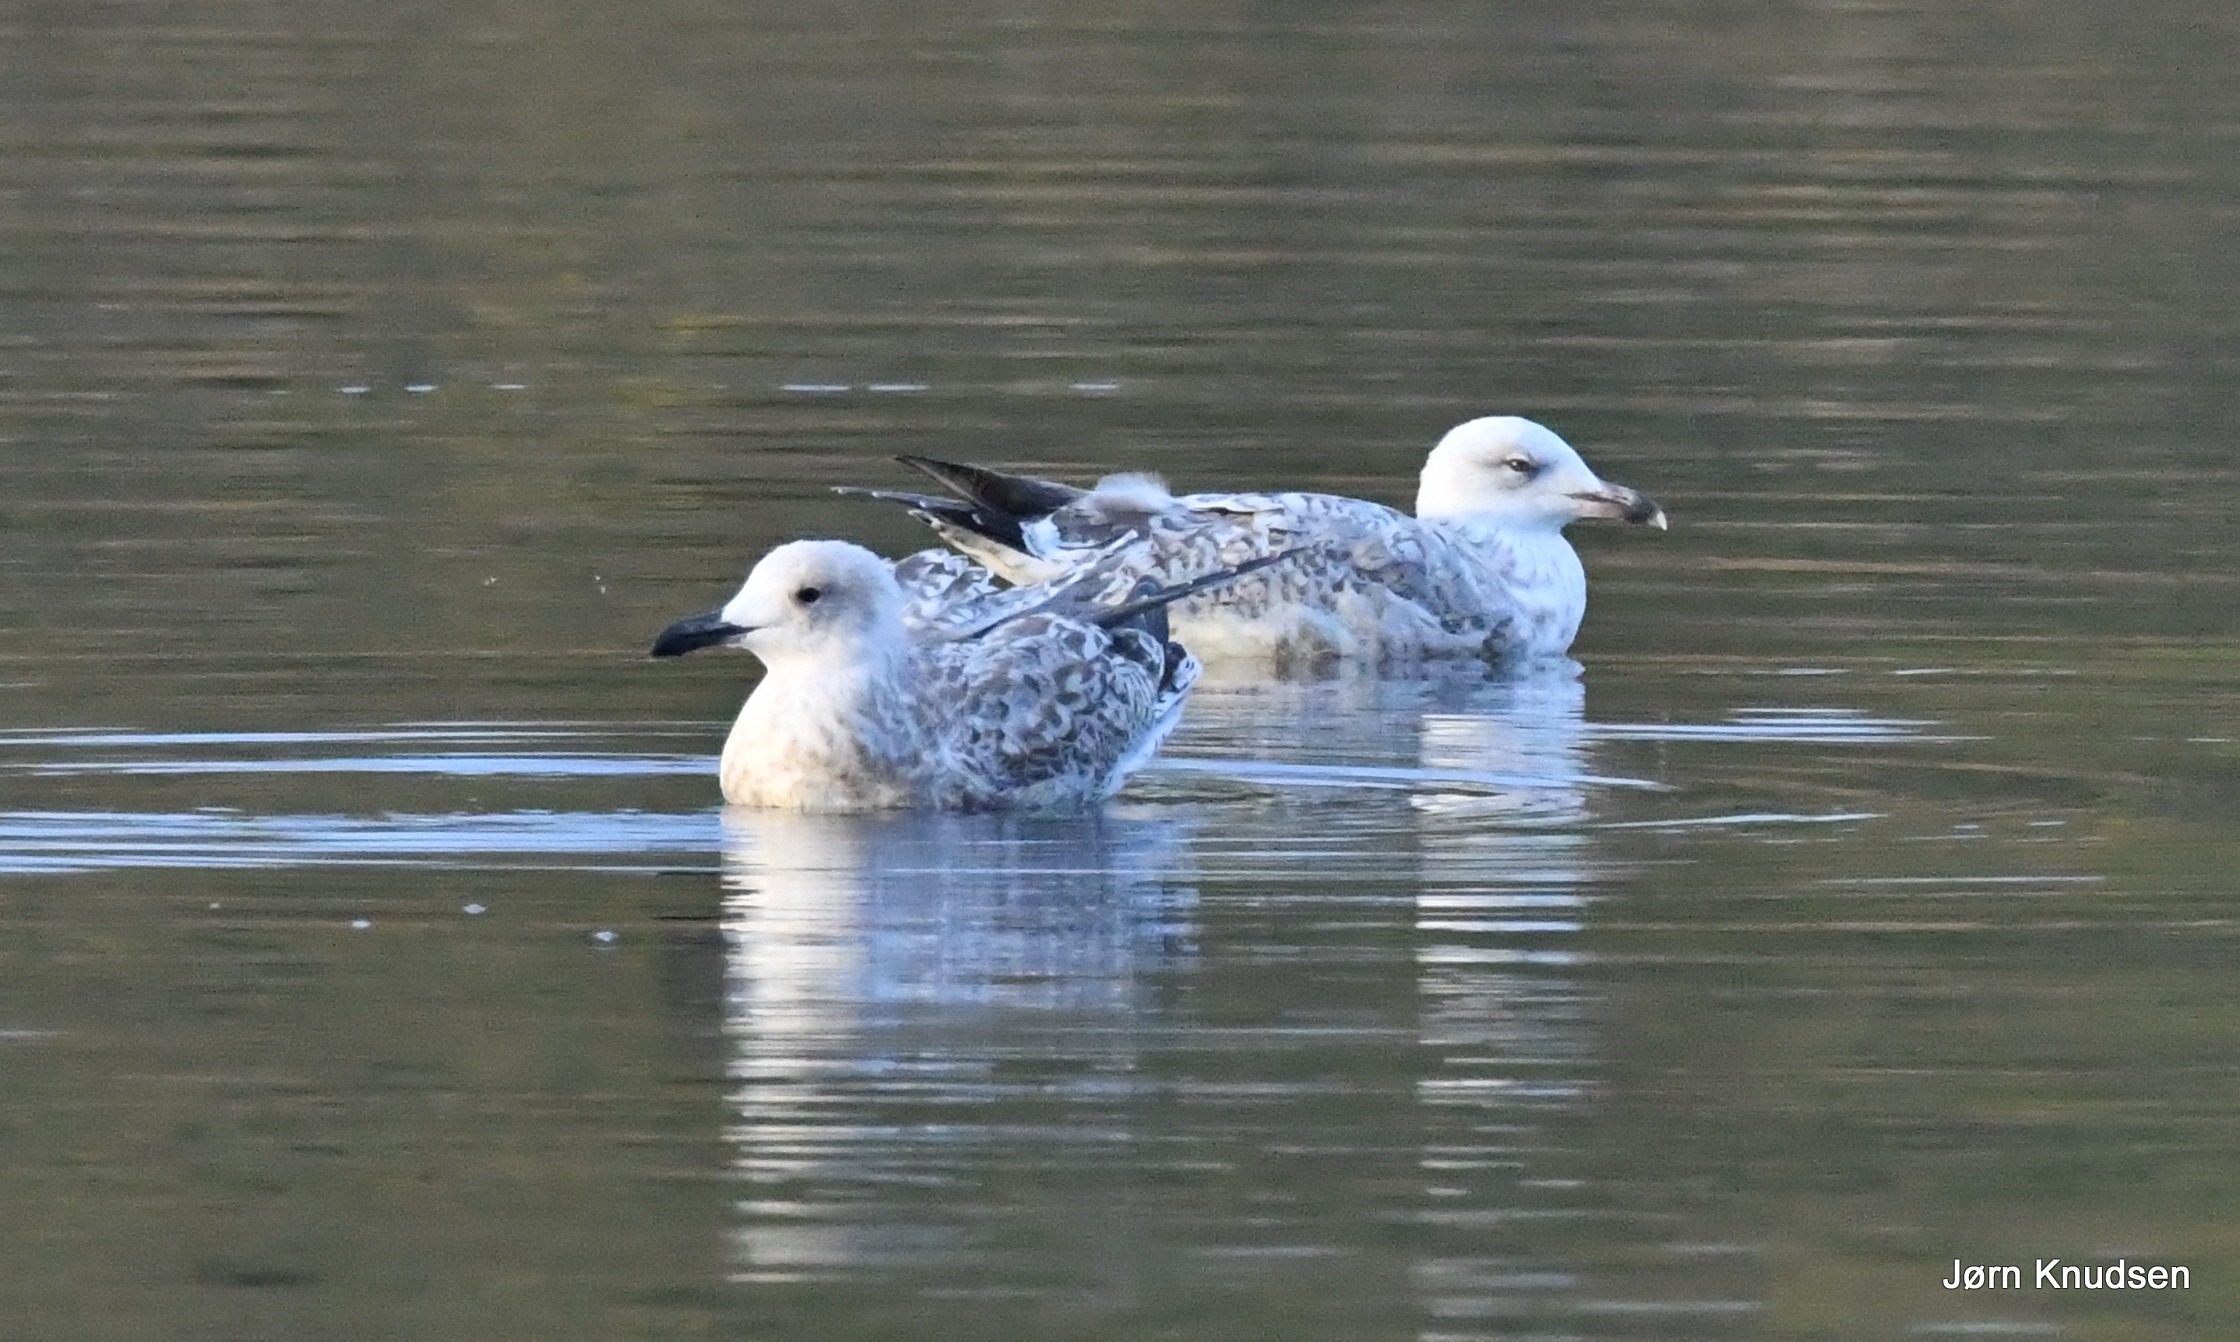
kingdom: Animalia
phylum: Chordata
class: Aves
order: Charadriiformes
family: Laridae
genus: Larus
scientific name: Larus argentatus
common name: Sølvmåge
